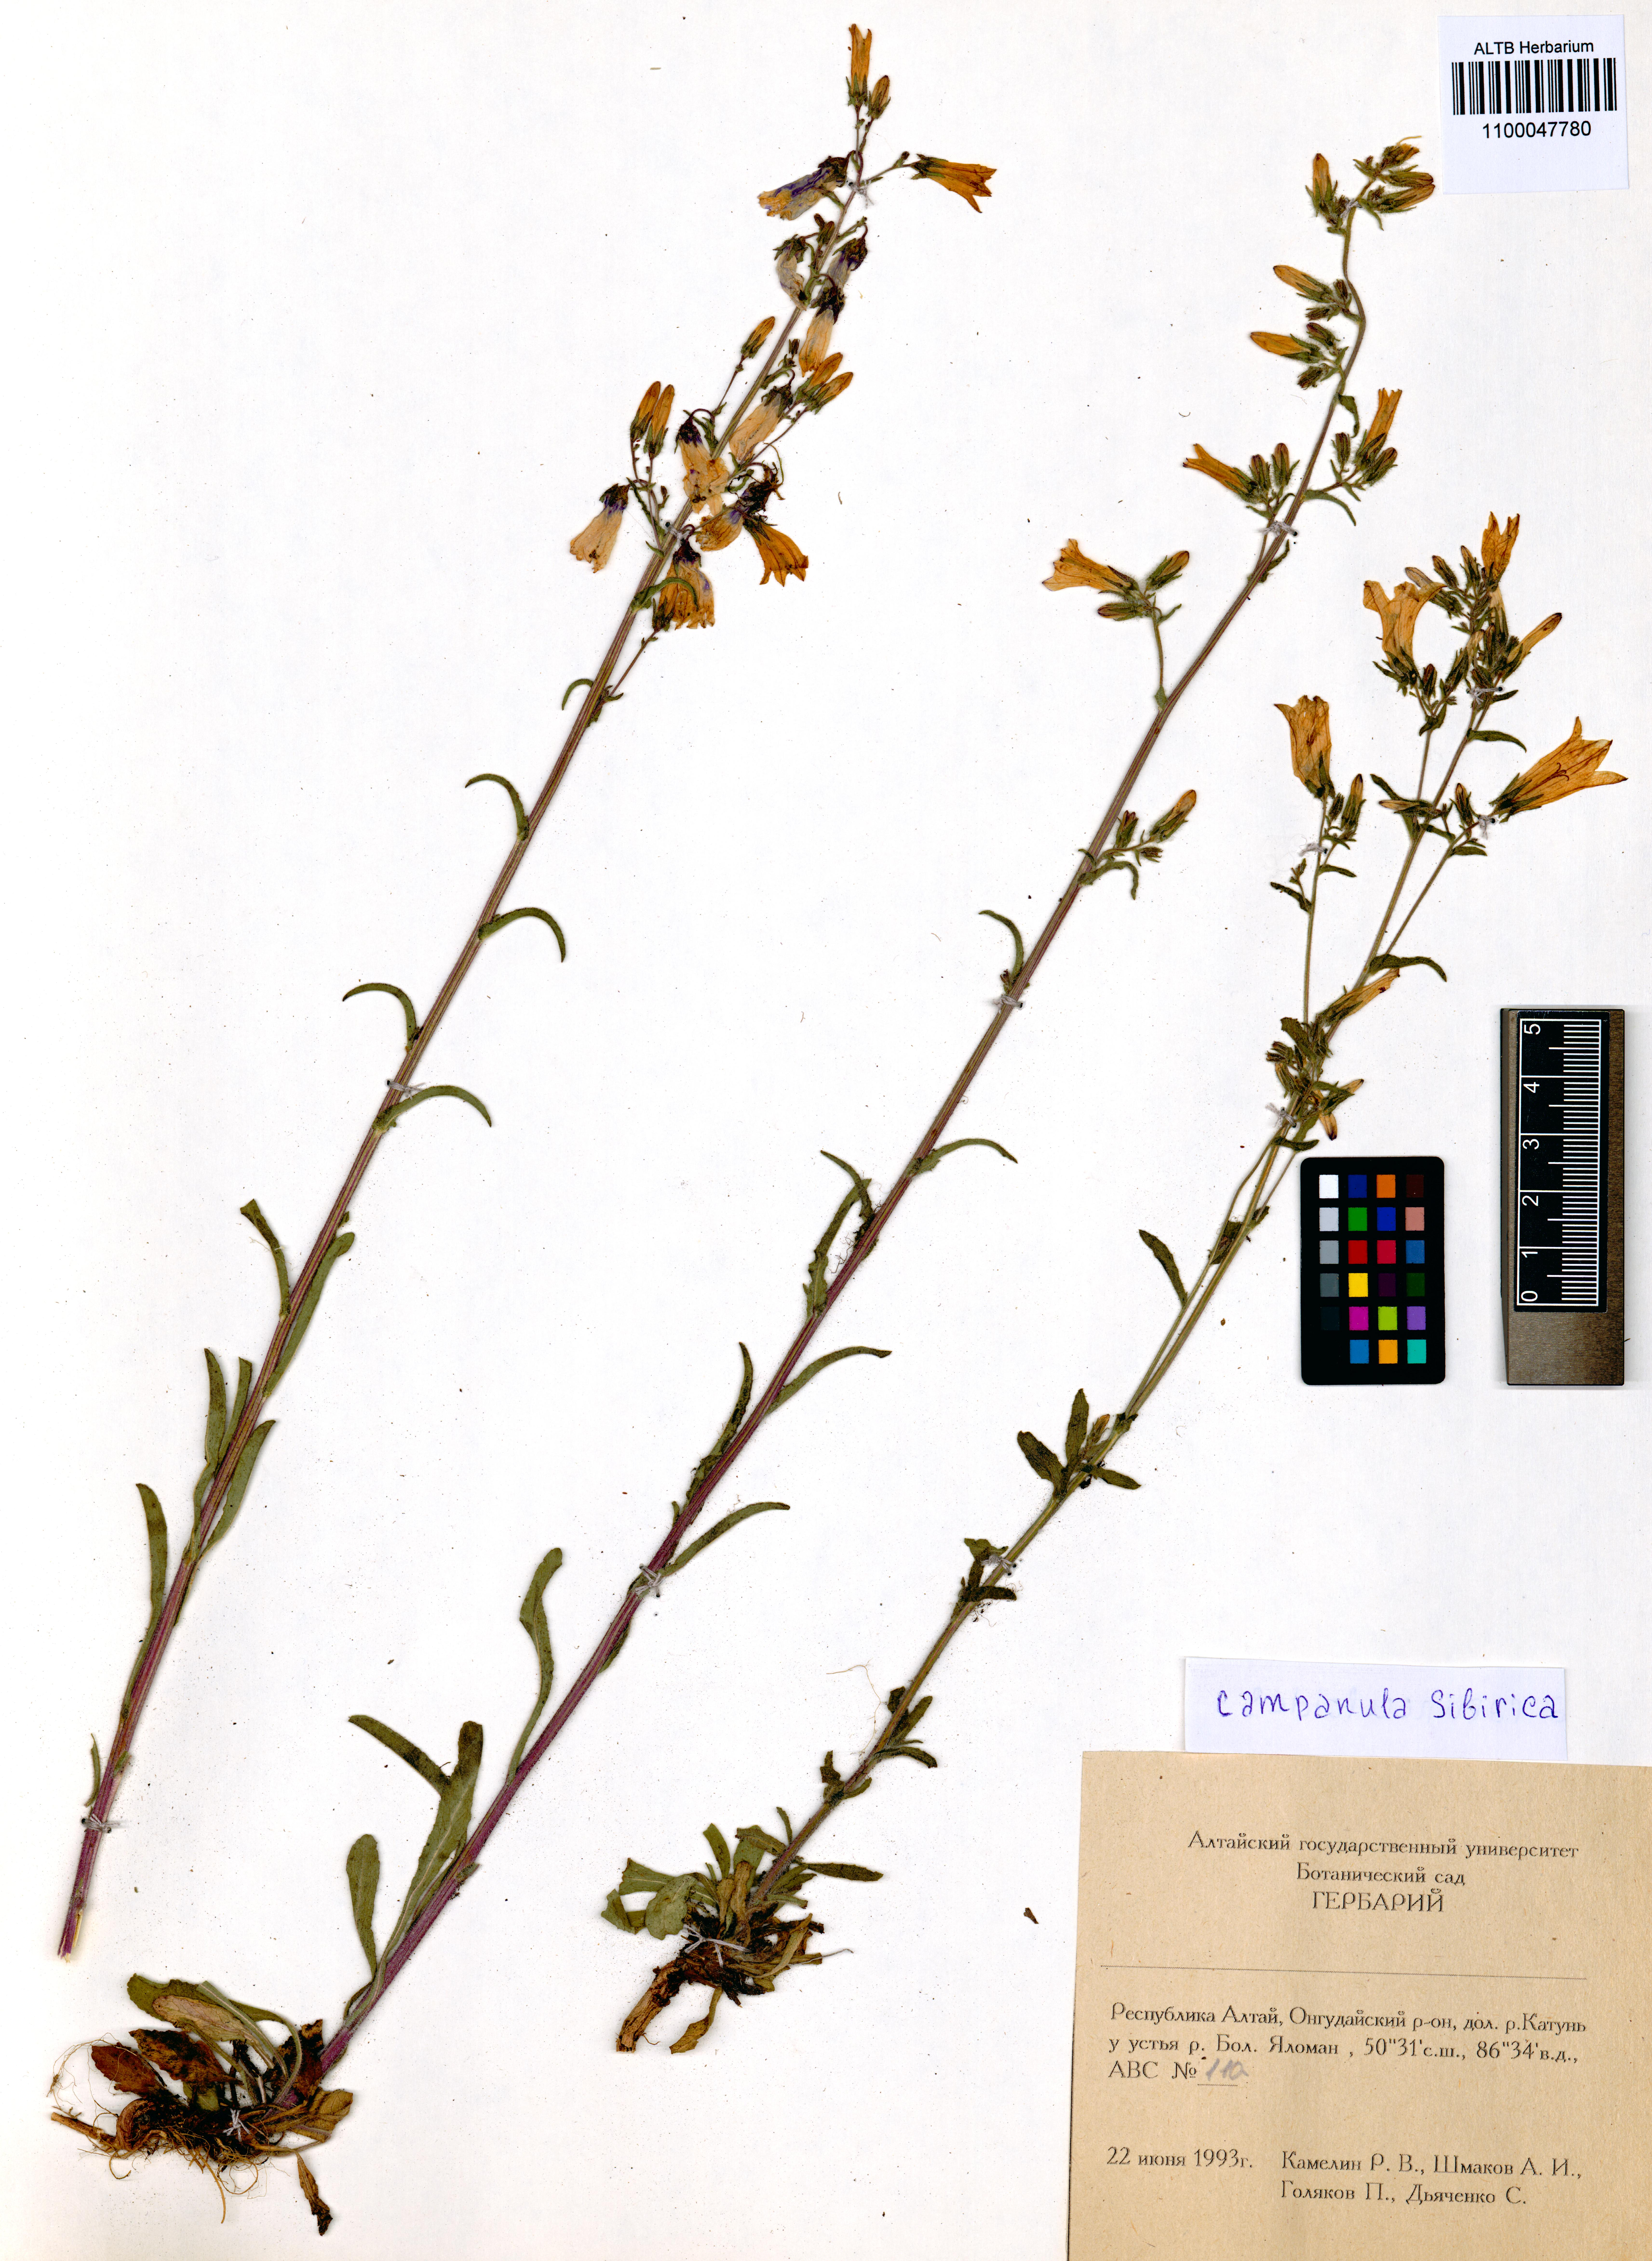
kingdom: Plantae
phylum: Tracheophyta
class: Magnoliopsida
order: Asterales
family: Campanulaceae
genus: Campanula
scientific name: Campanula sibirica
